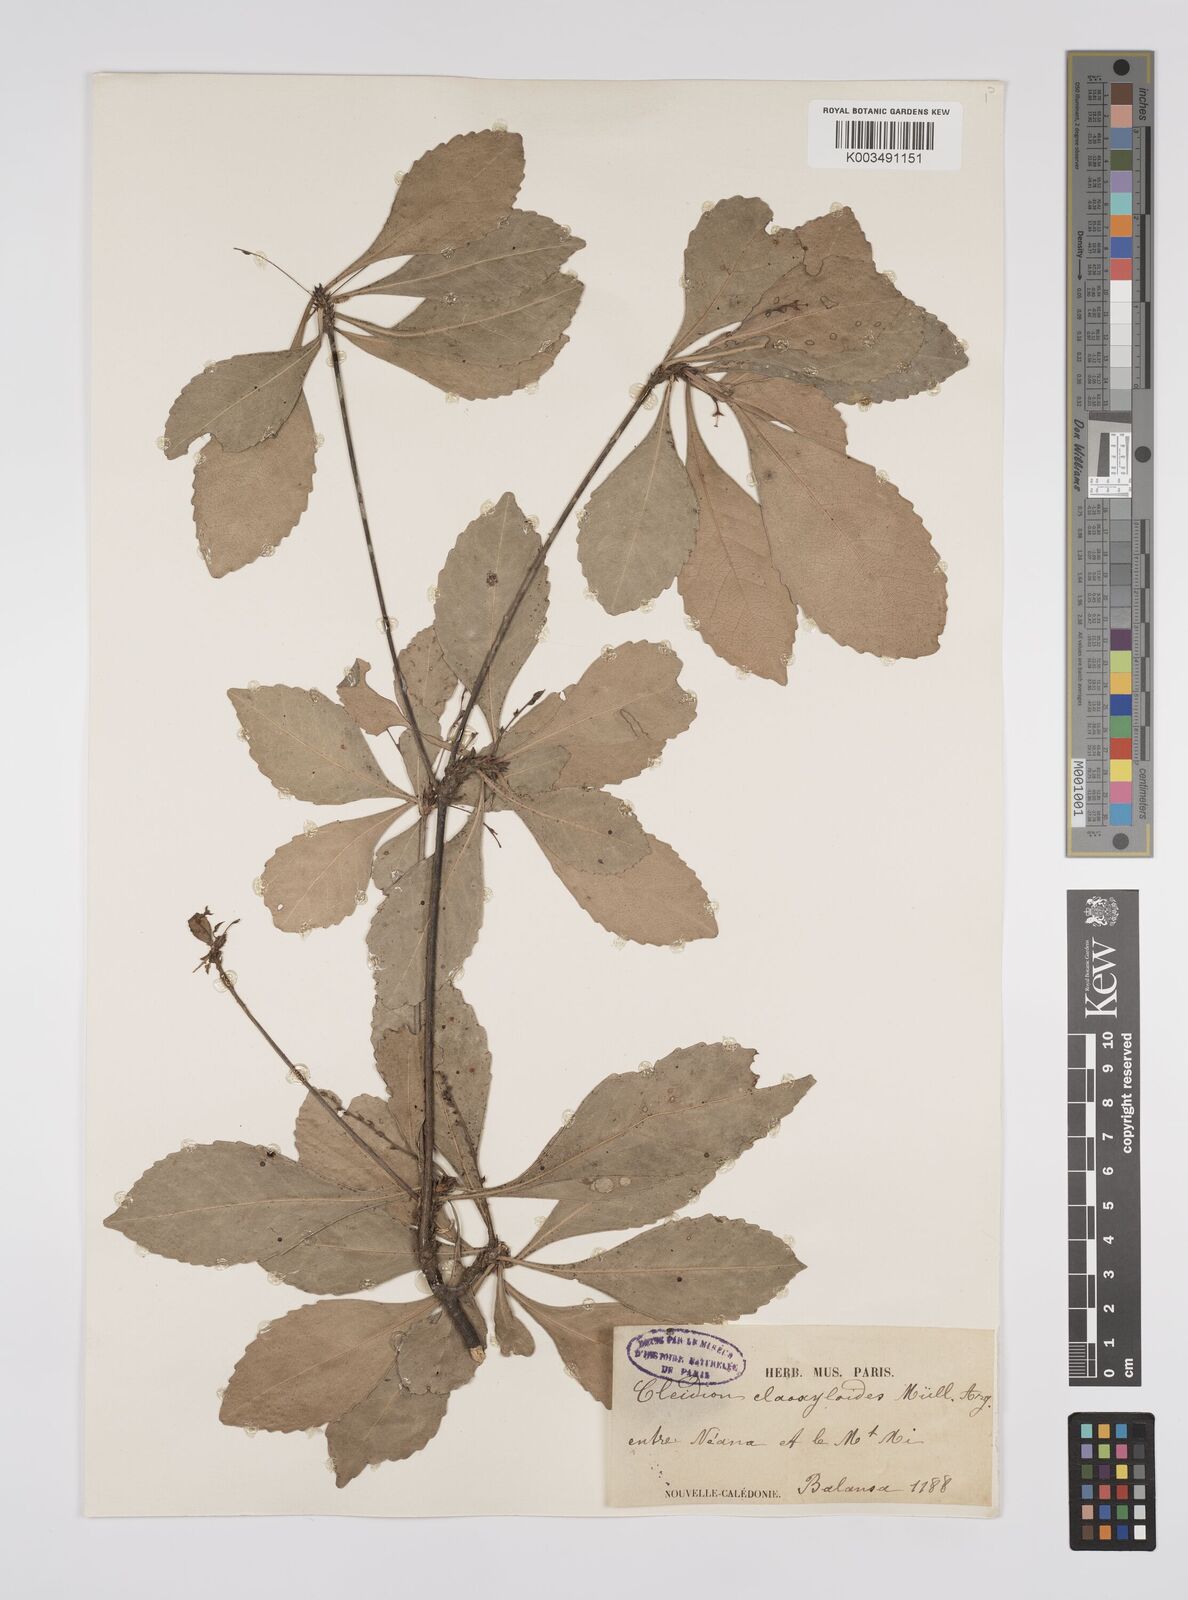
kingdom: Plantae
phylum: Tracheophyta
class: Magnoliopsida
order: Malpighiales
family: Euphorbiaceae
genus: Cleidion
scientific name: Cleidion claoxyloides
